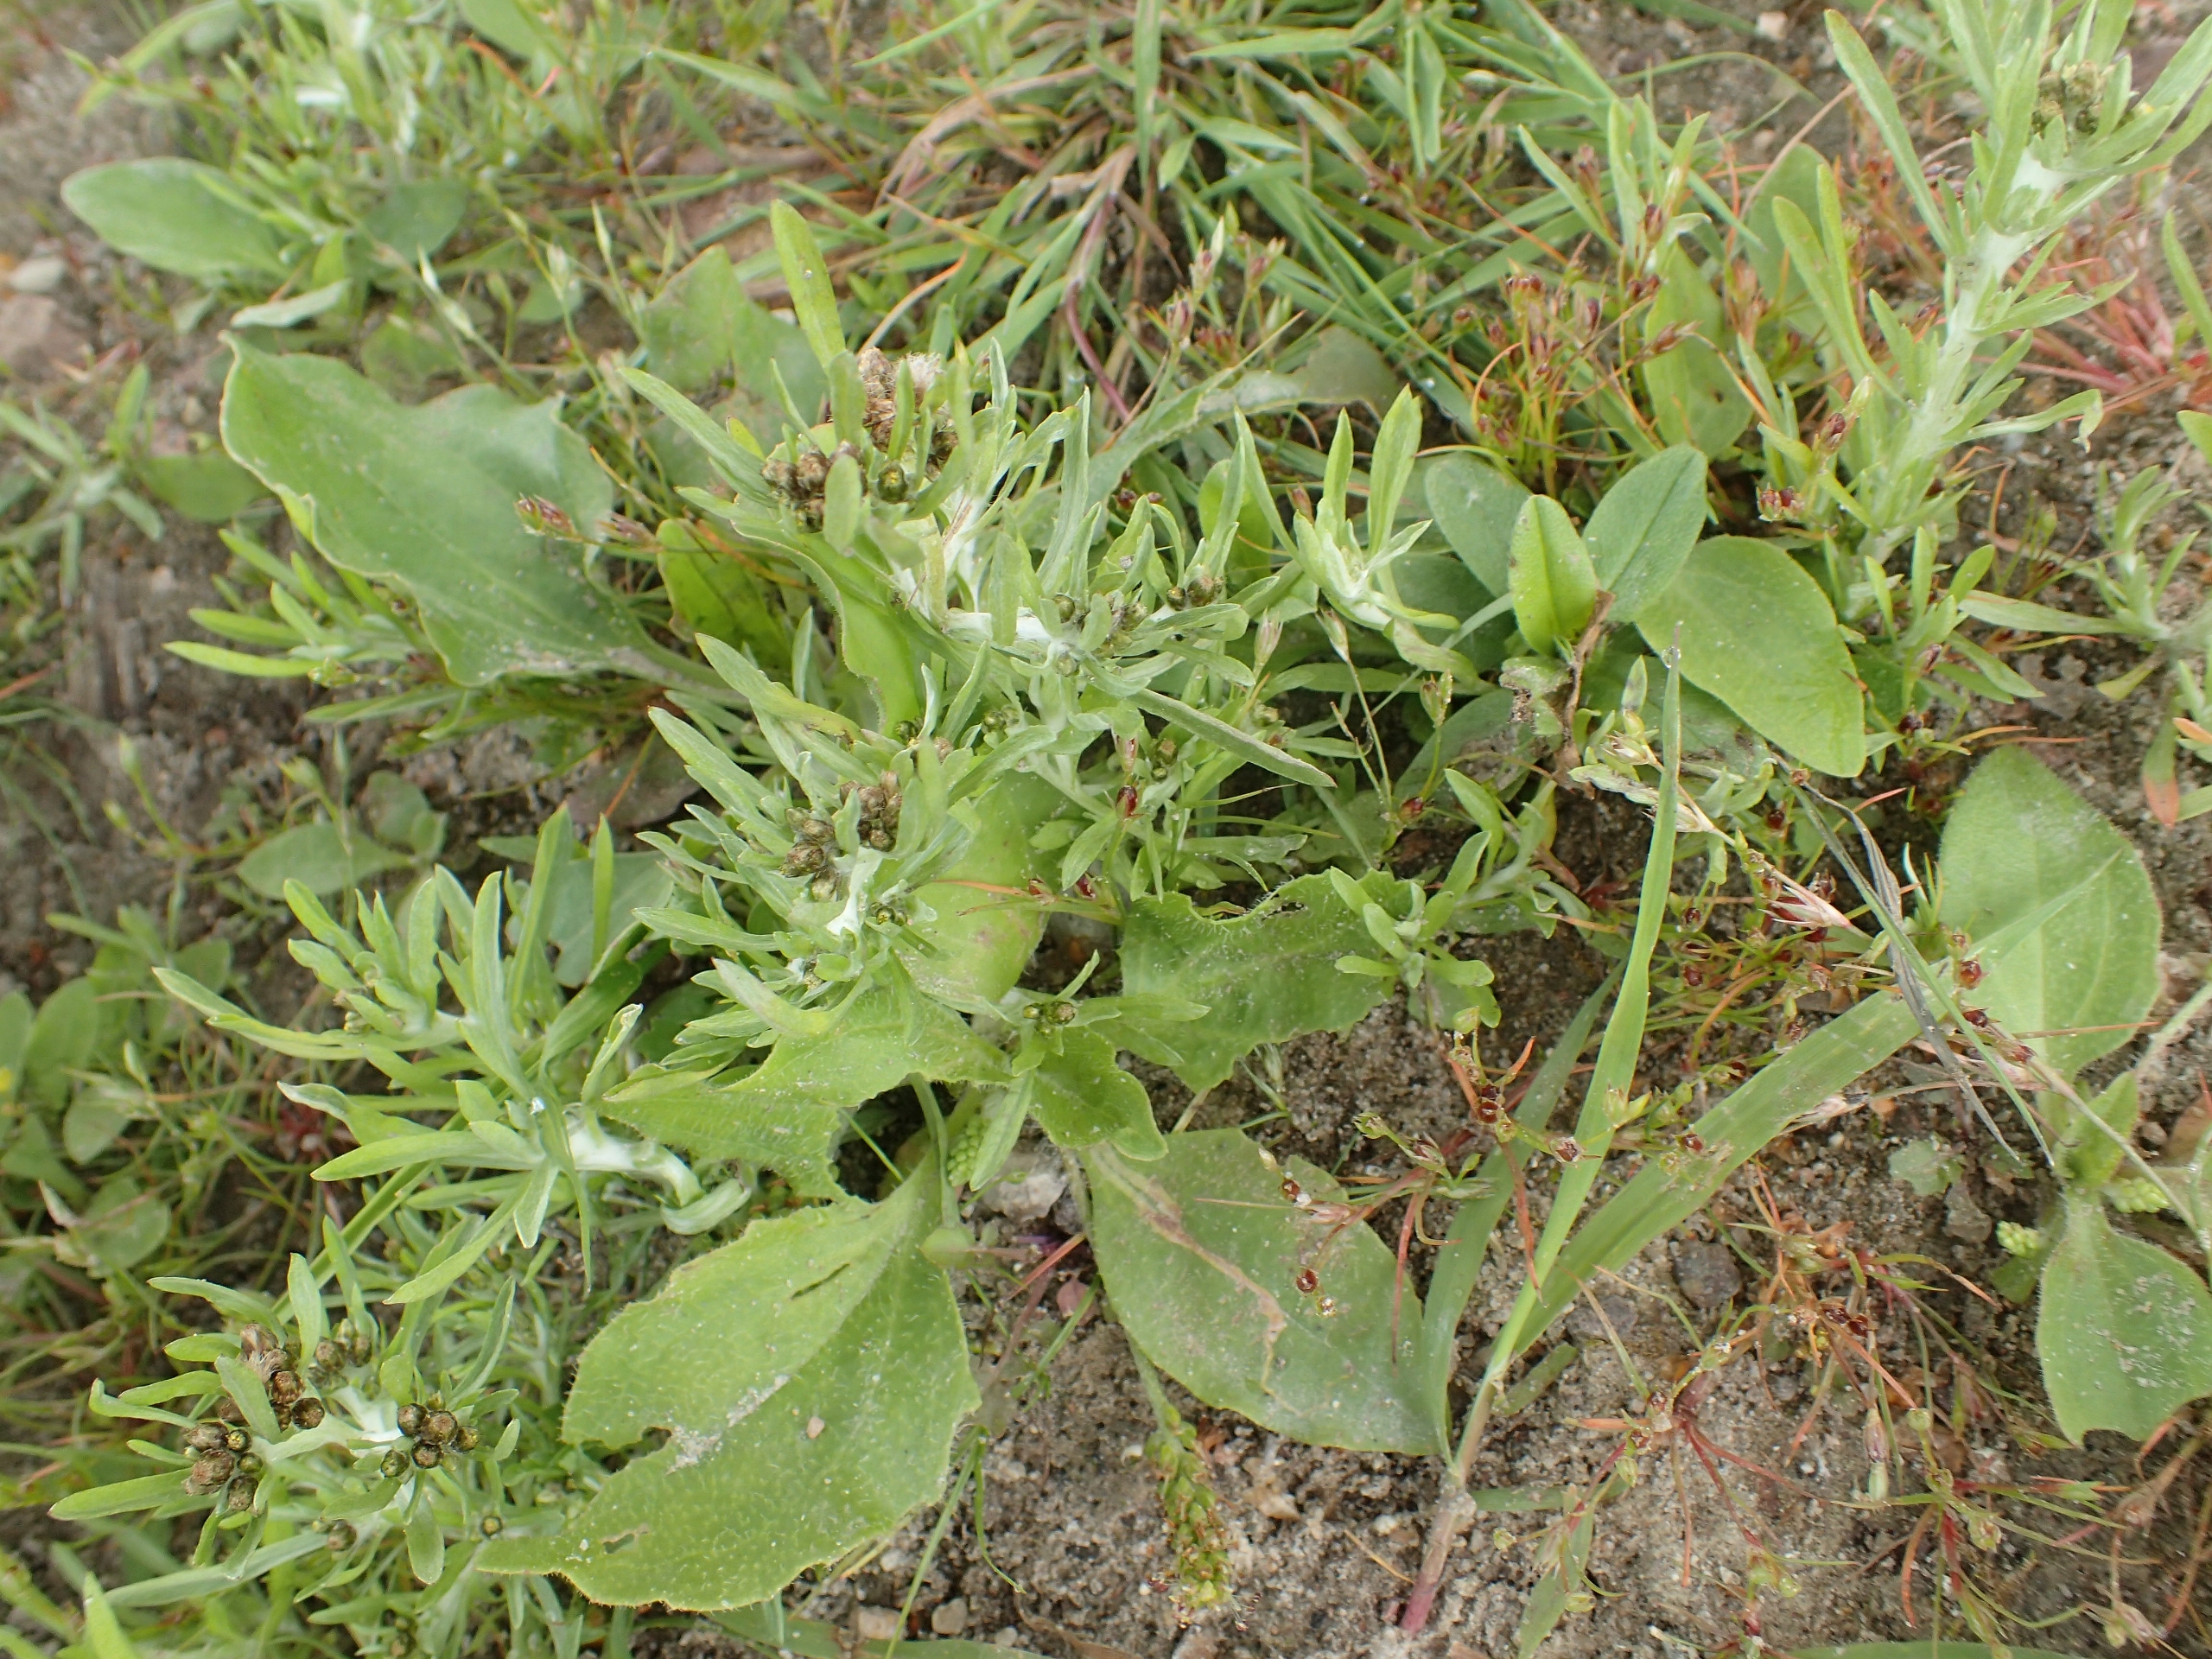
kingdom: Plantae
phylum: Tracheophyta
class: Magnoliopsida
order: Lamiales
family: Plantaginaceae
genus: Plantago
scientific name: Plantago uliginosa
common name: Ager-vejbred
